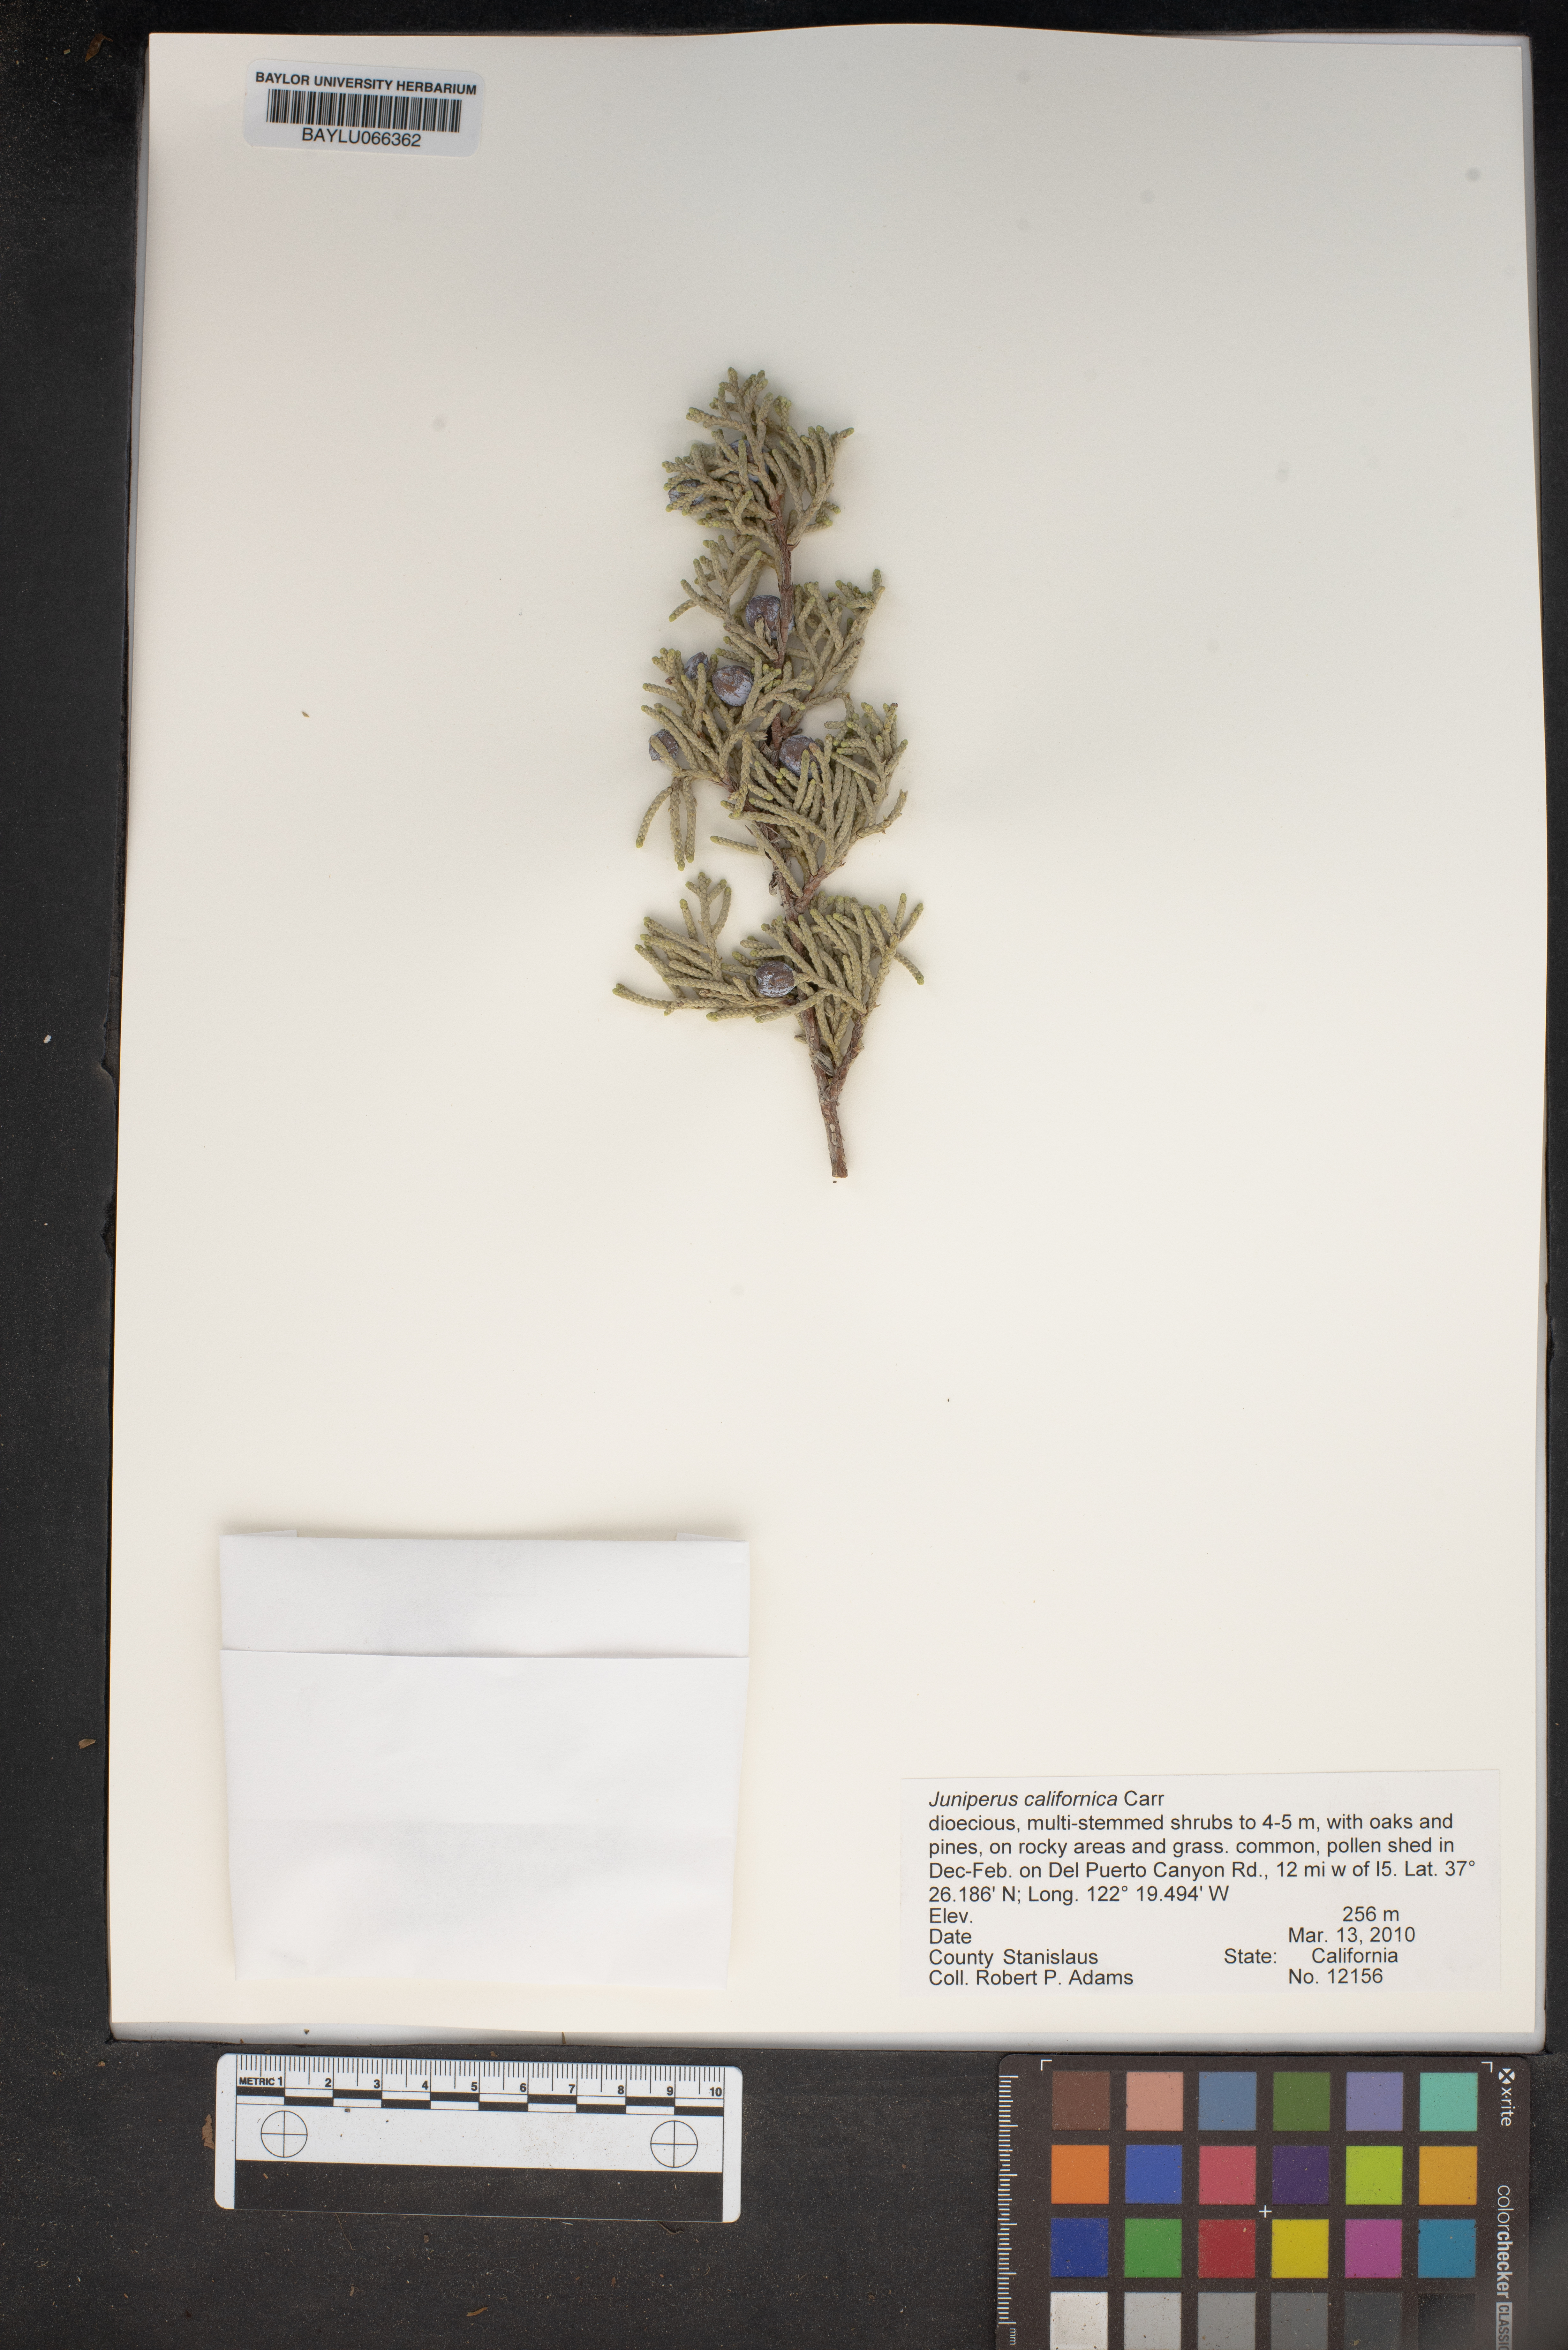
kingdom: Plantae
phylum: Tracheophyta
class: Pinopsida
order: Pinales
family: Cupressaceae
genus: Juniperus
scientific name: Juniperus californica
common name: California juniper
